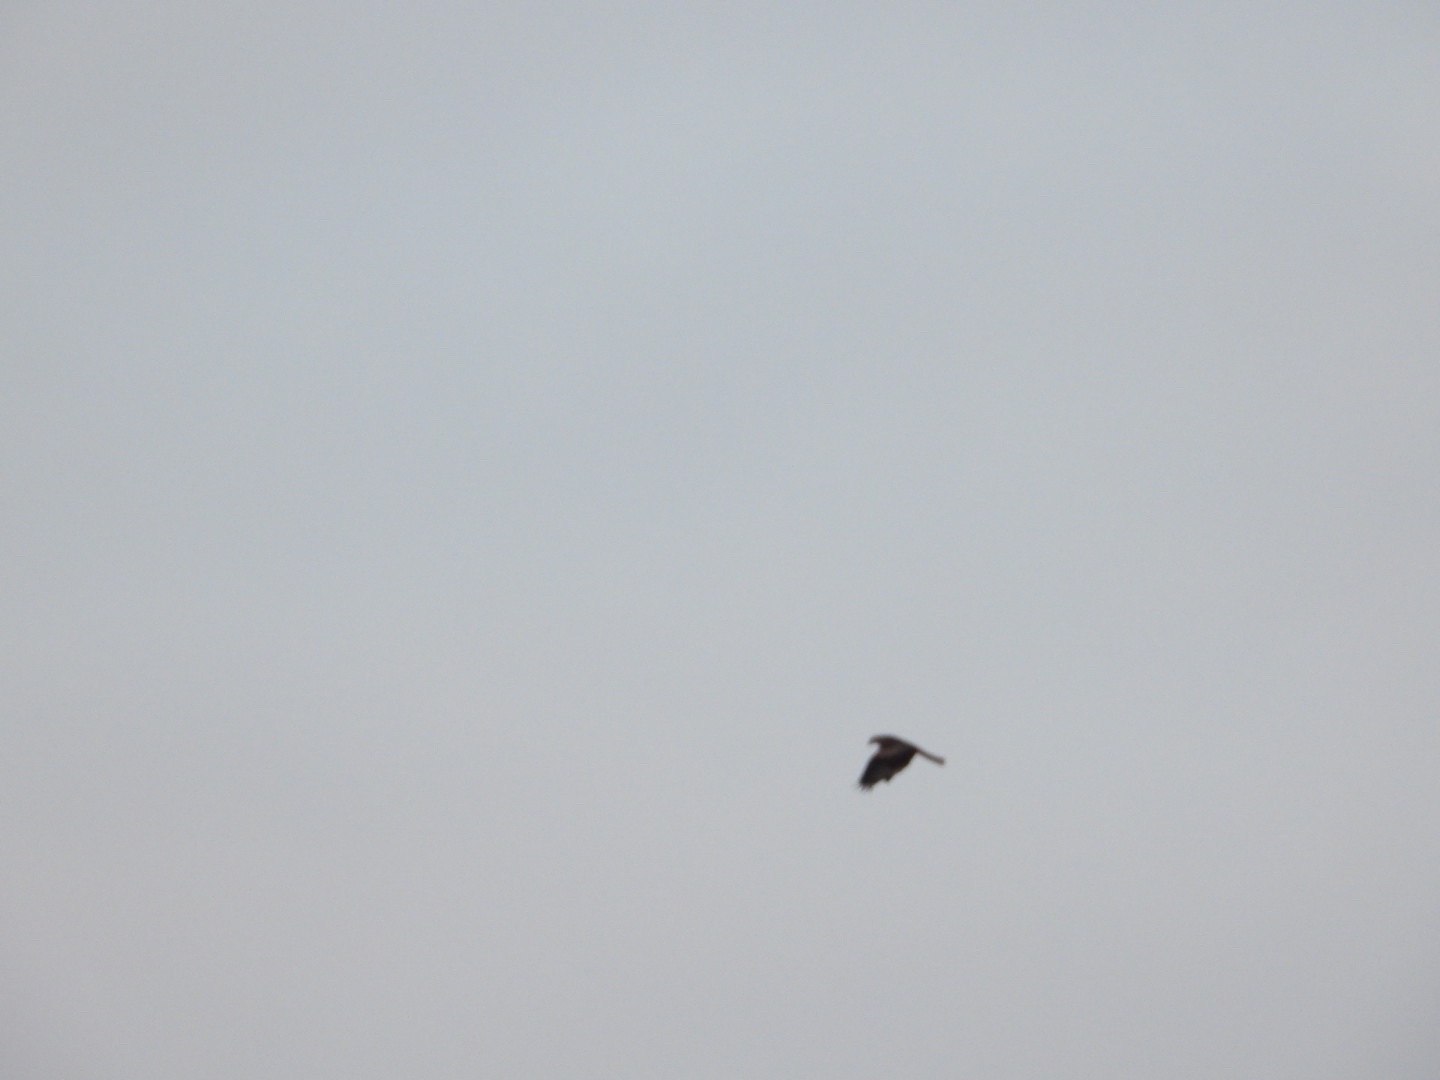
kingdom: Animalia
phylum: Chordata
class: Aves
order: Accipitriformes
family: Accipitridae
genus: Milvus
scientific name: Milvus milvus
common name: Rød glente
